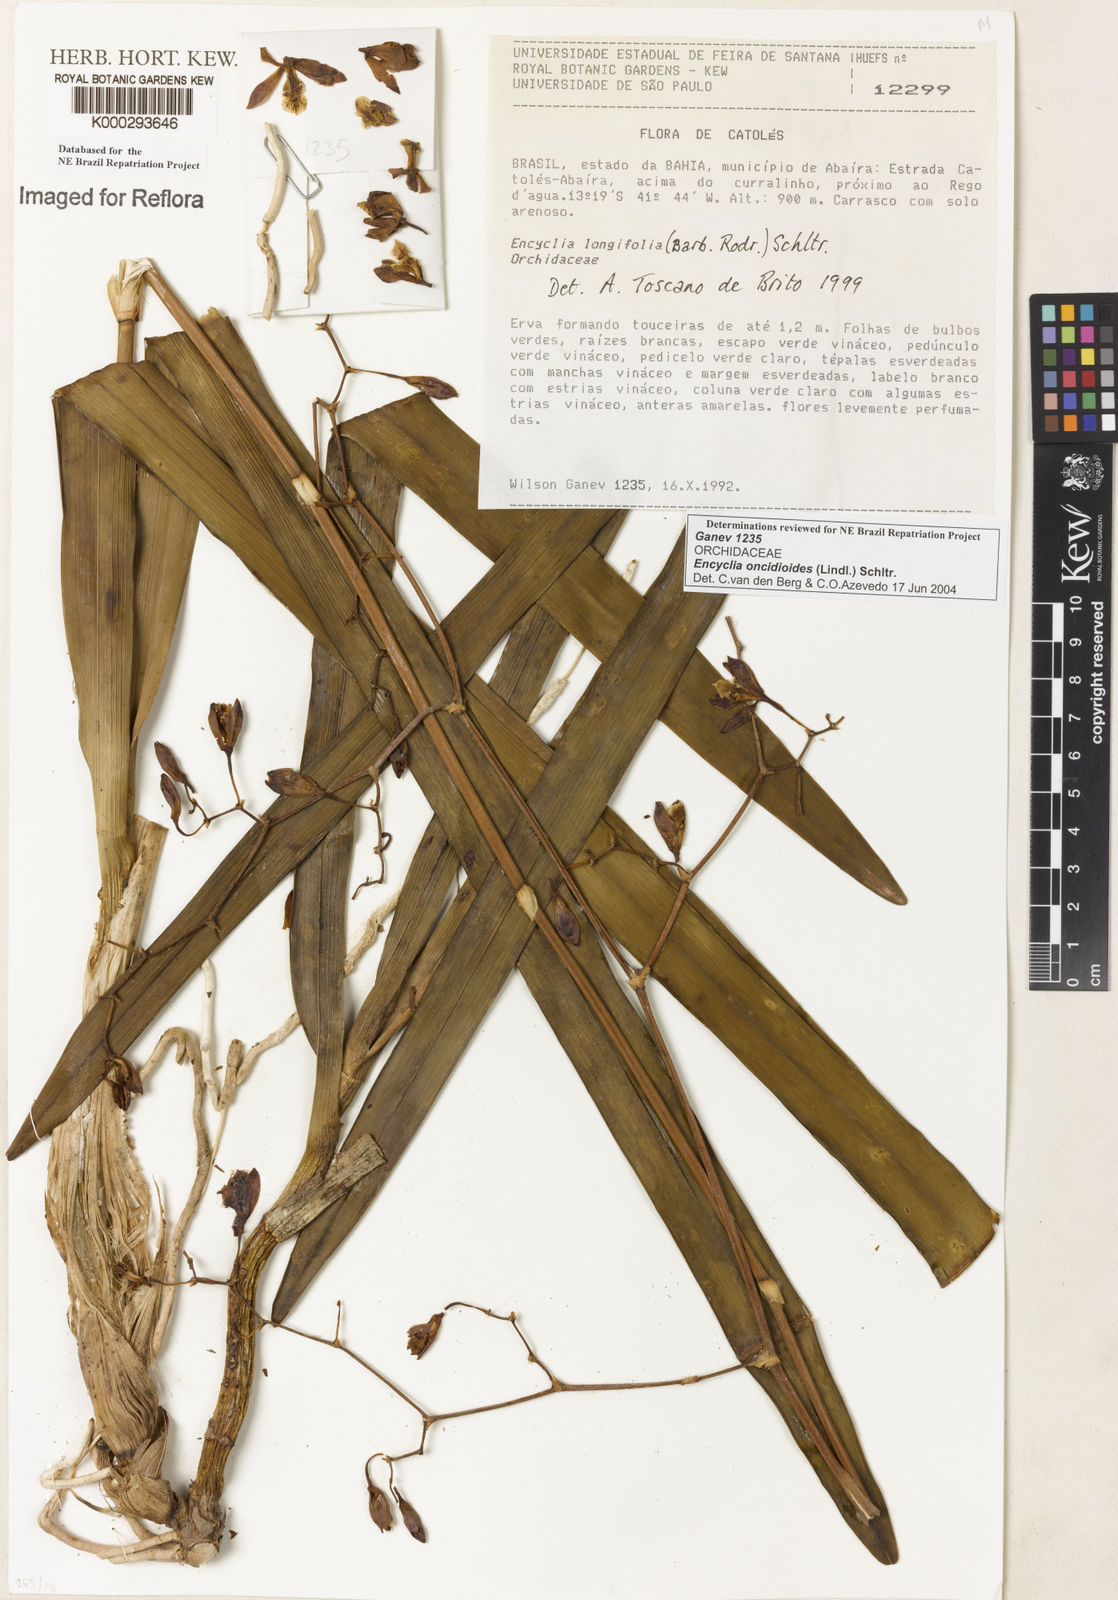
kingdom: Plantae
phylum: Tracheophyta
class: Liliopsida
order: Asparagales
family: Orchidaceae
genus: Encyclia
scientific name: Encyclia oncidioides
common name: Heavyfruit butterfly orchid
